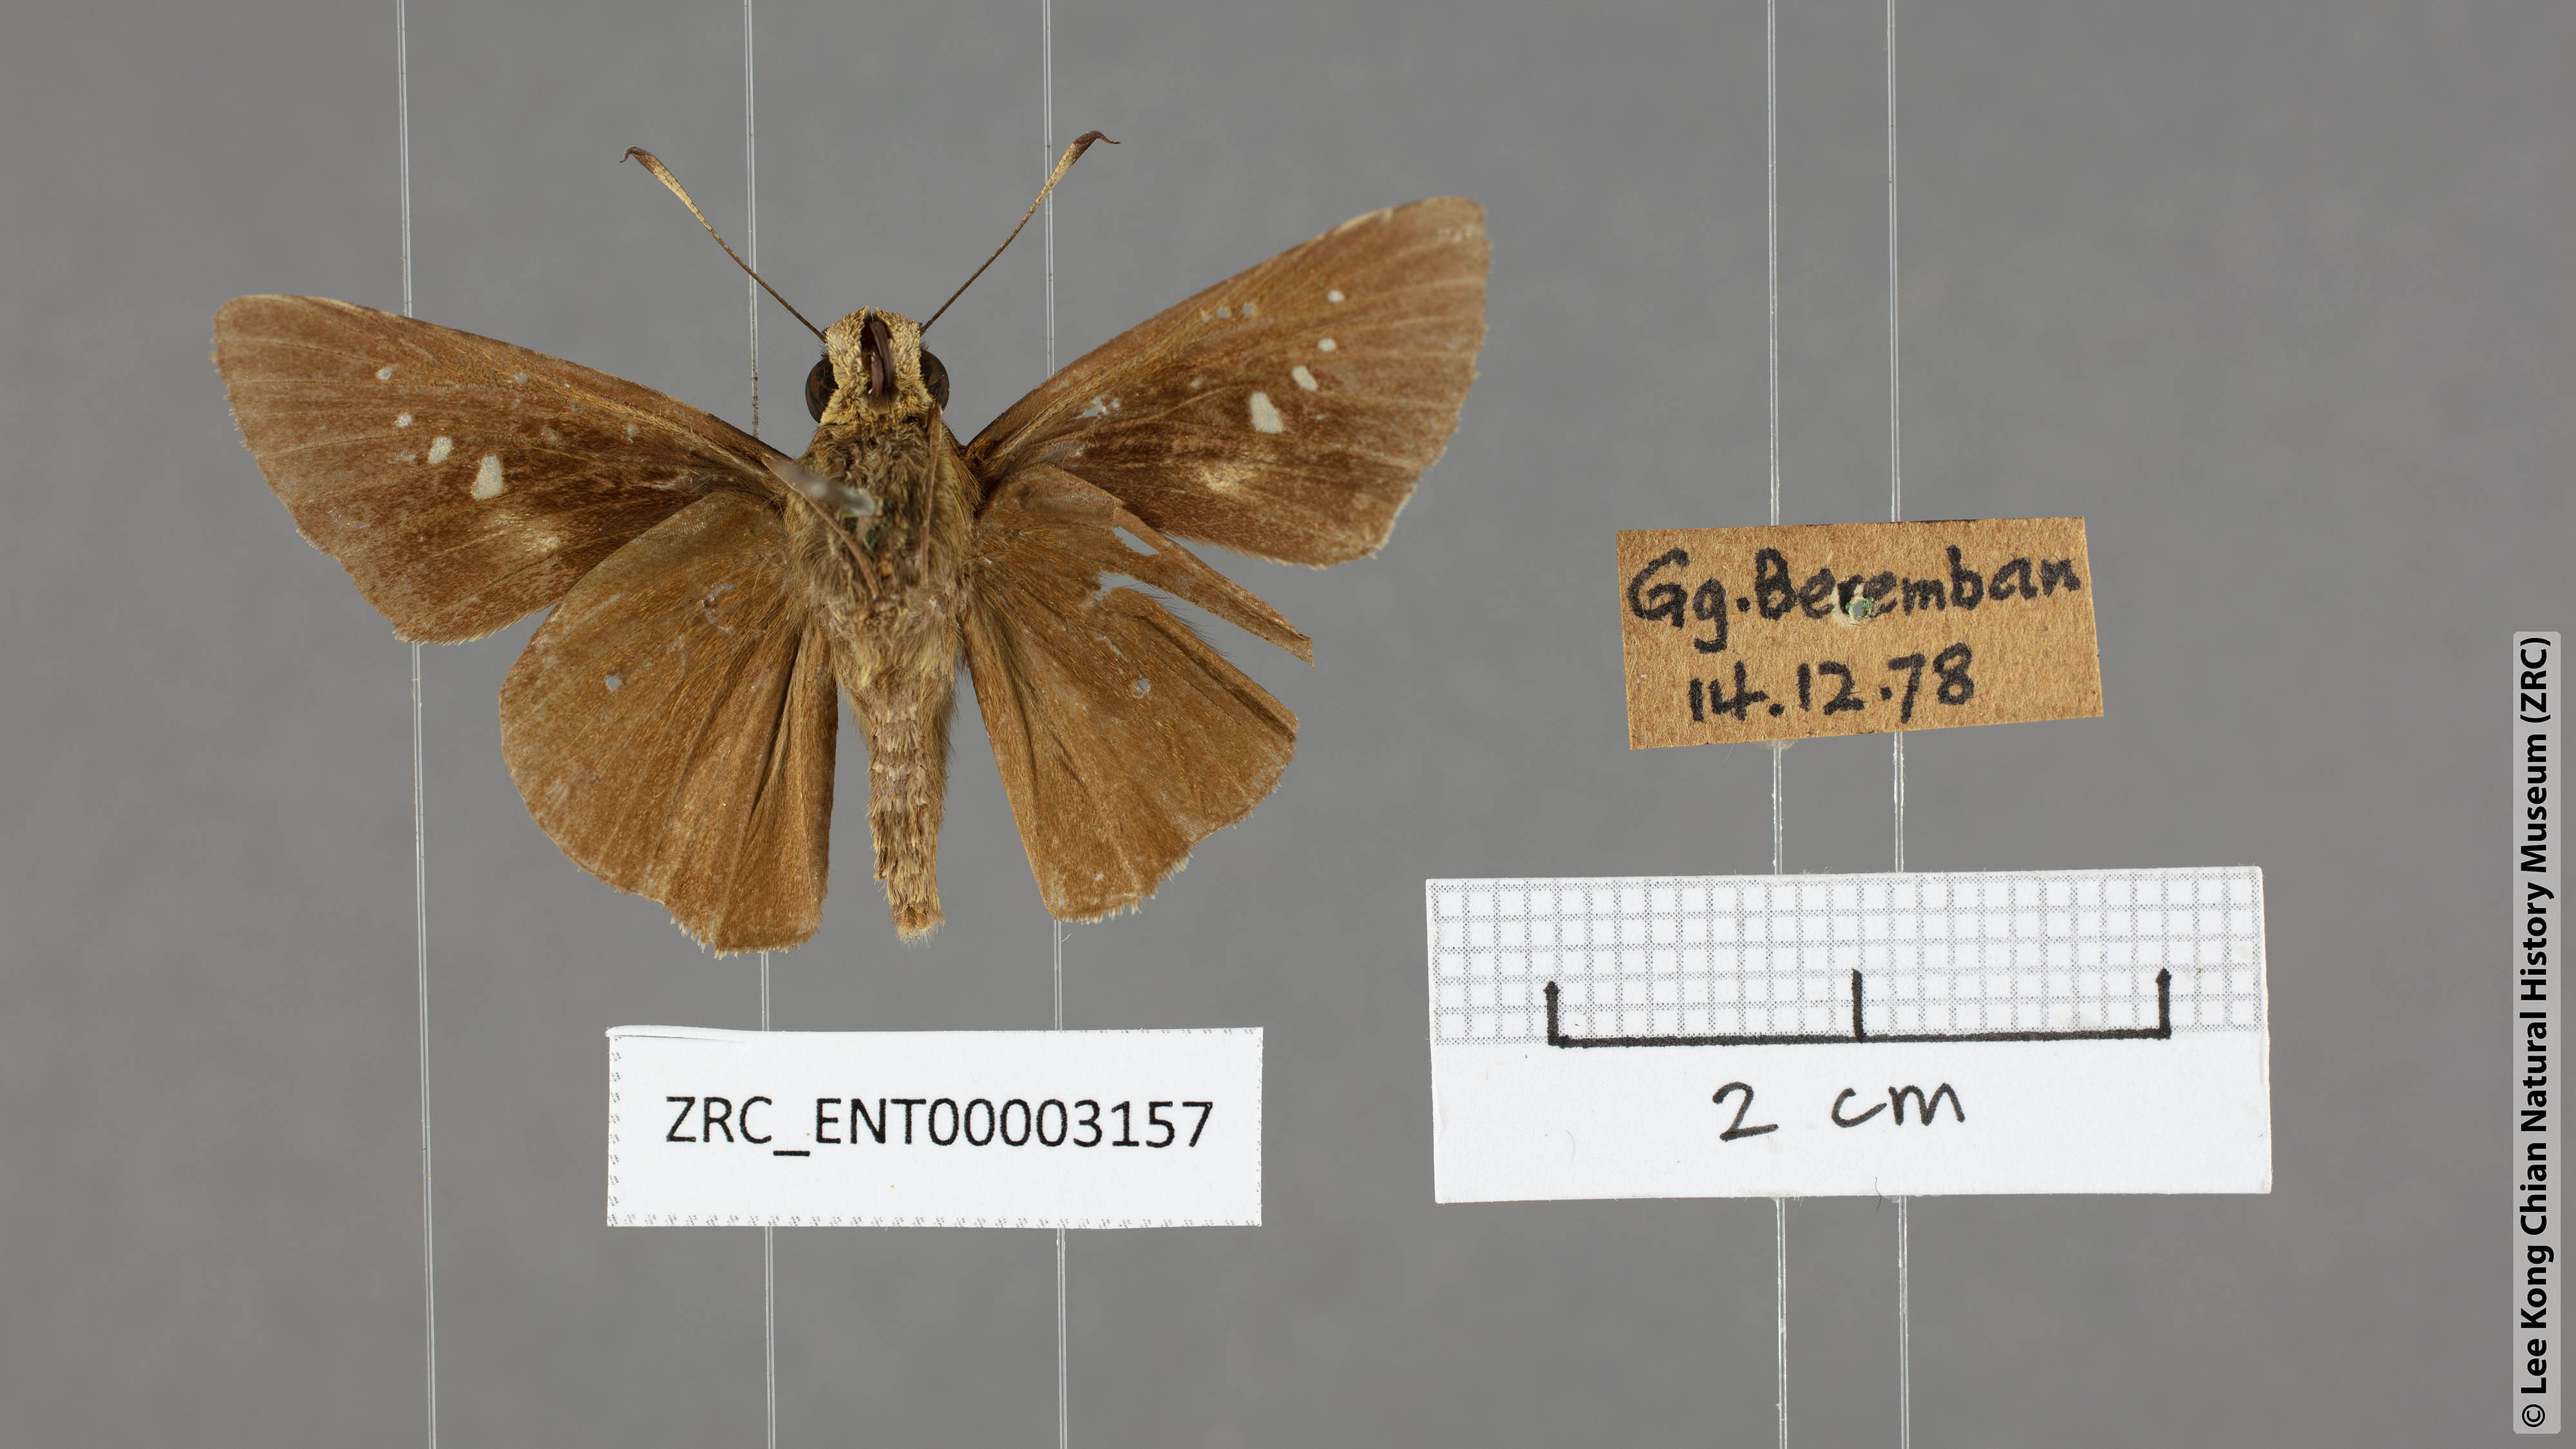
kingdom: Animalia
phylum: Arthropoda
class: Insecta
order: Lepidoptera
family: Hesperiidae
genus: Caltoris
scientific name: Caltoris malaya
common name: Malayan swift
